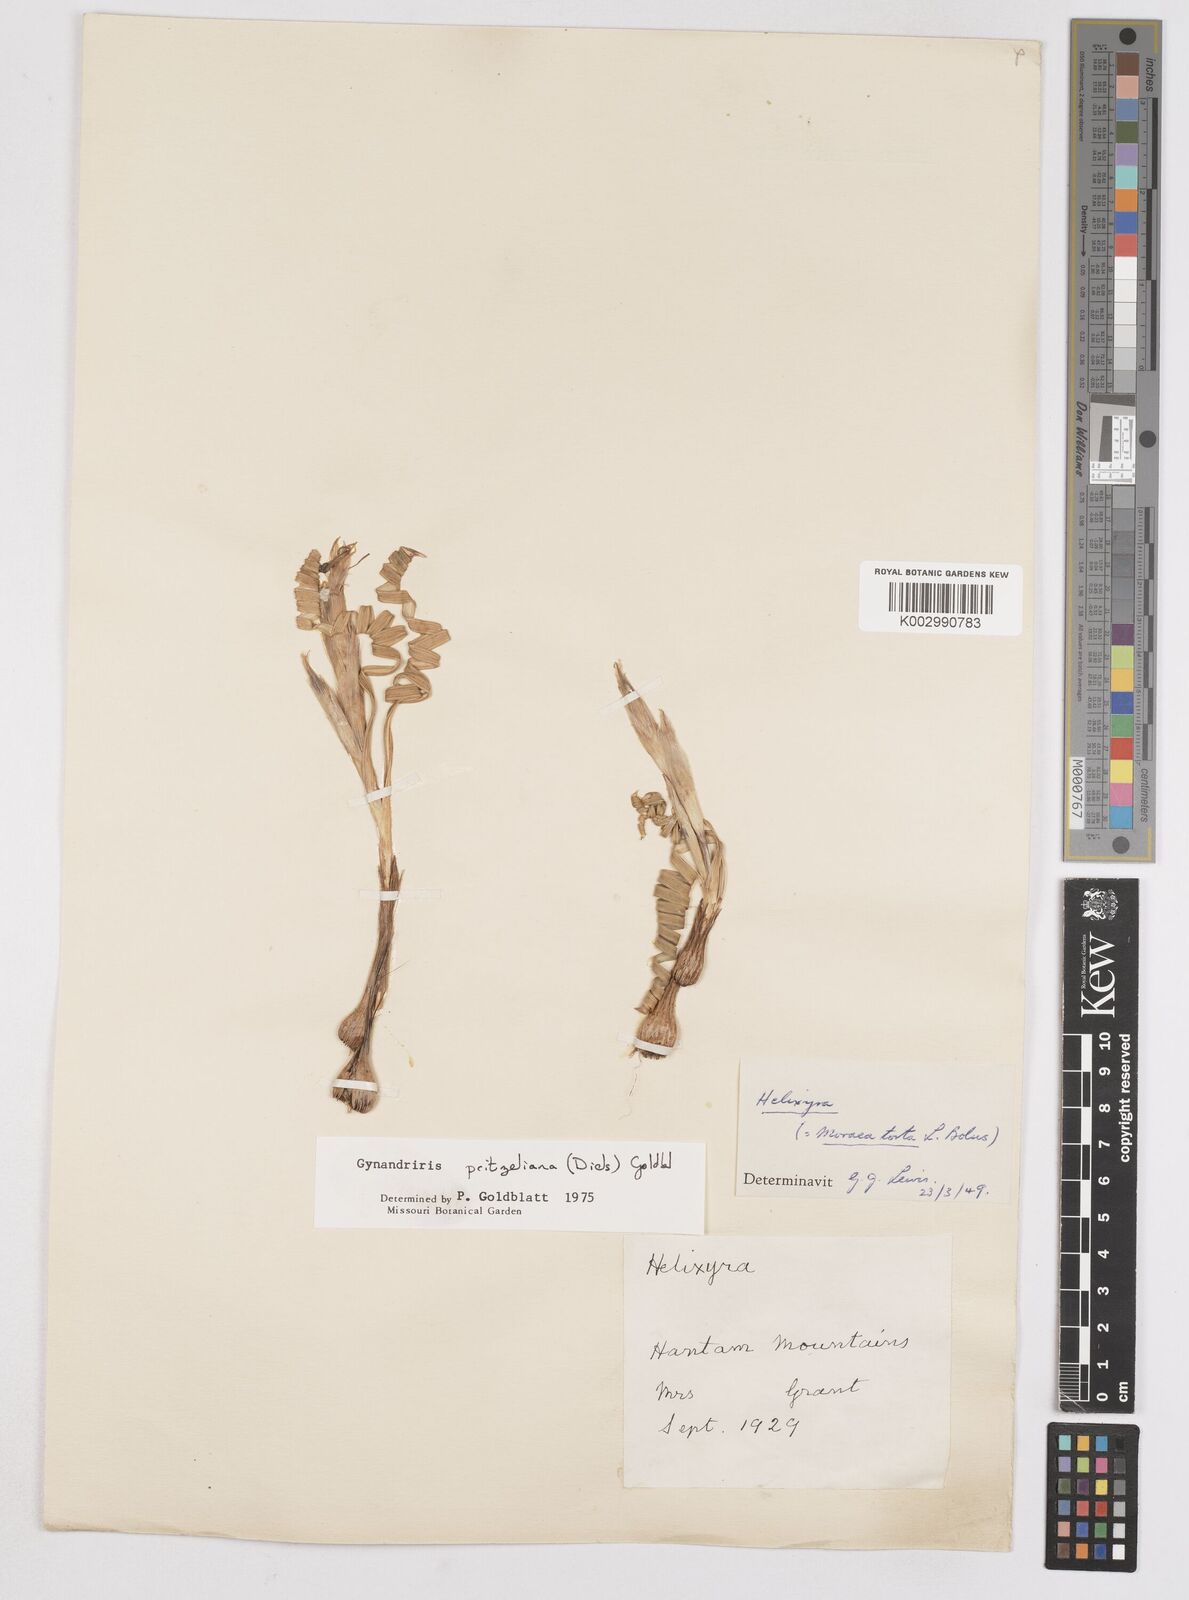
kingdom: Plantae
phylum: Tracheophyta
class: Liliopsida
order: Asparagales
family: Iridaceae
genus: Moraea
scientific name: Moraea pritzeliana
